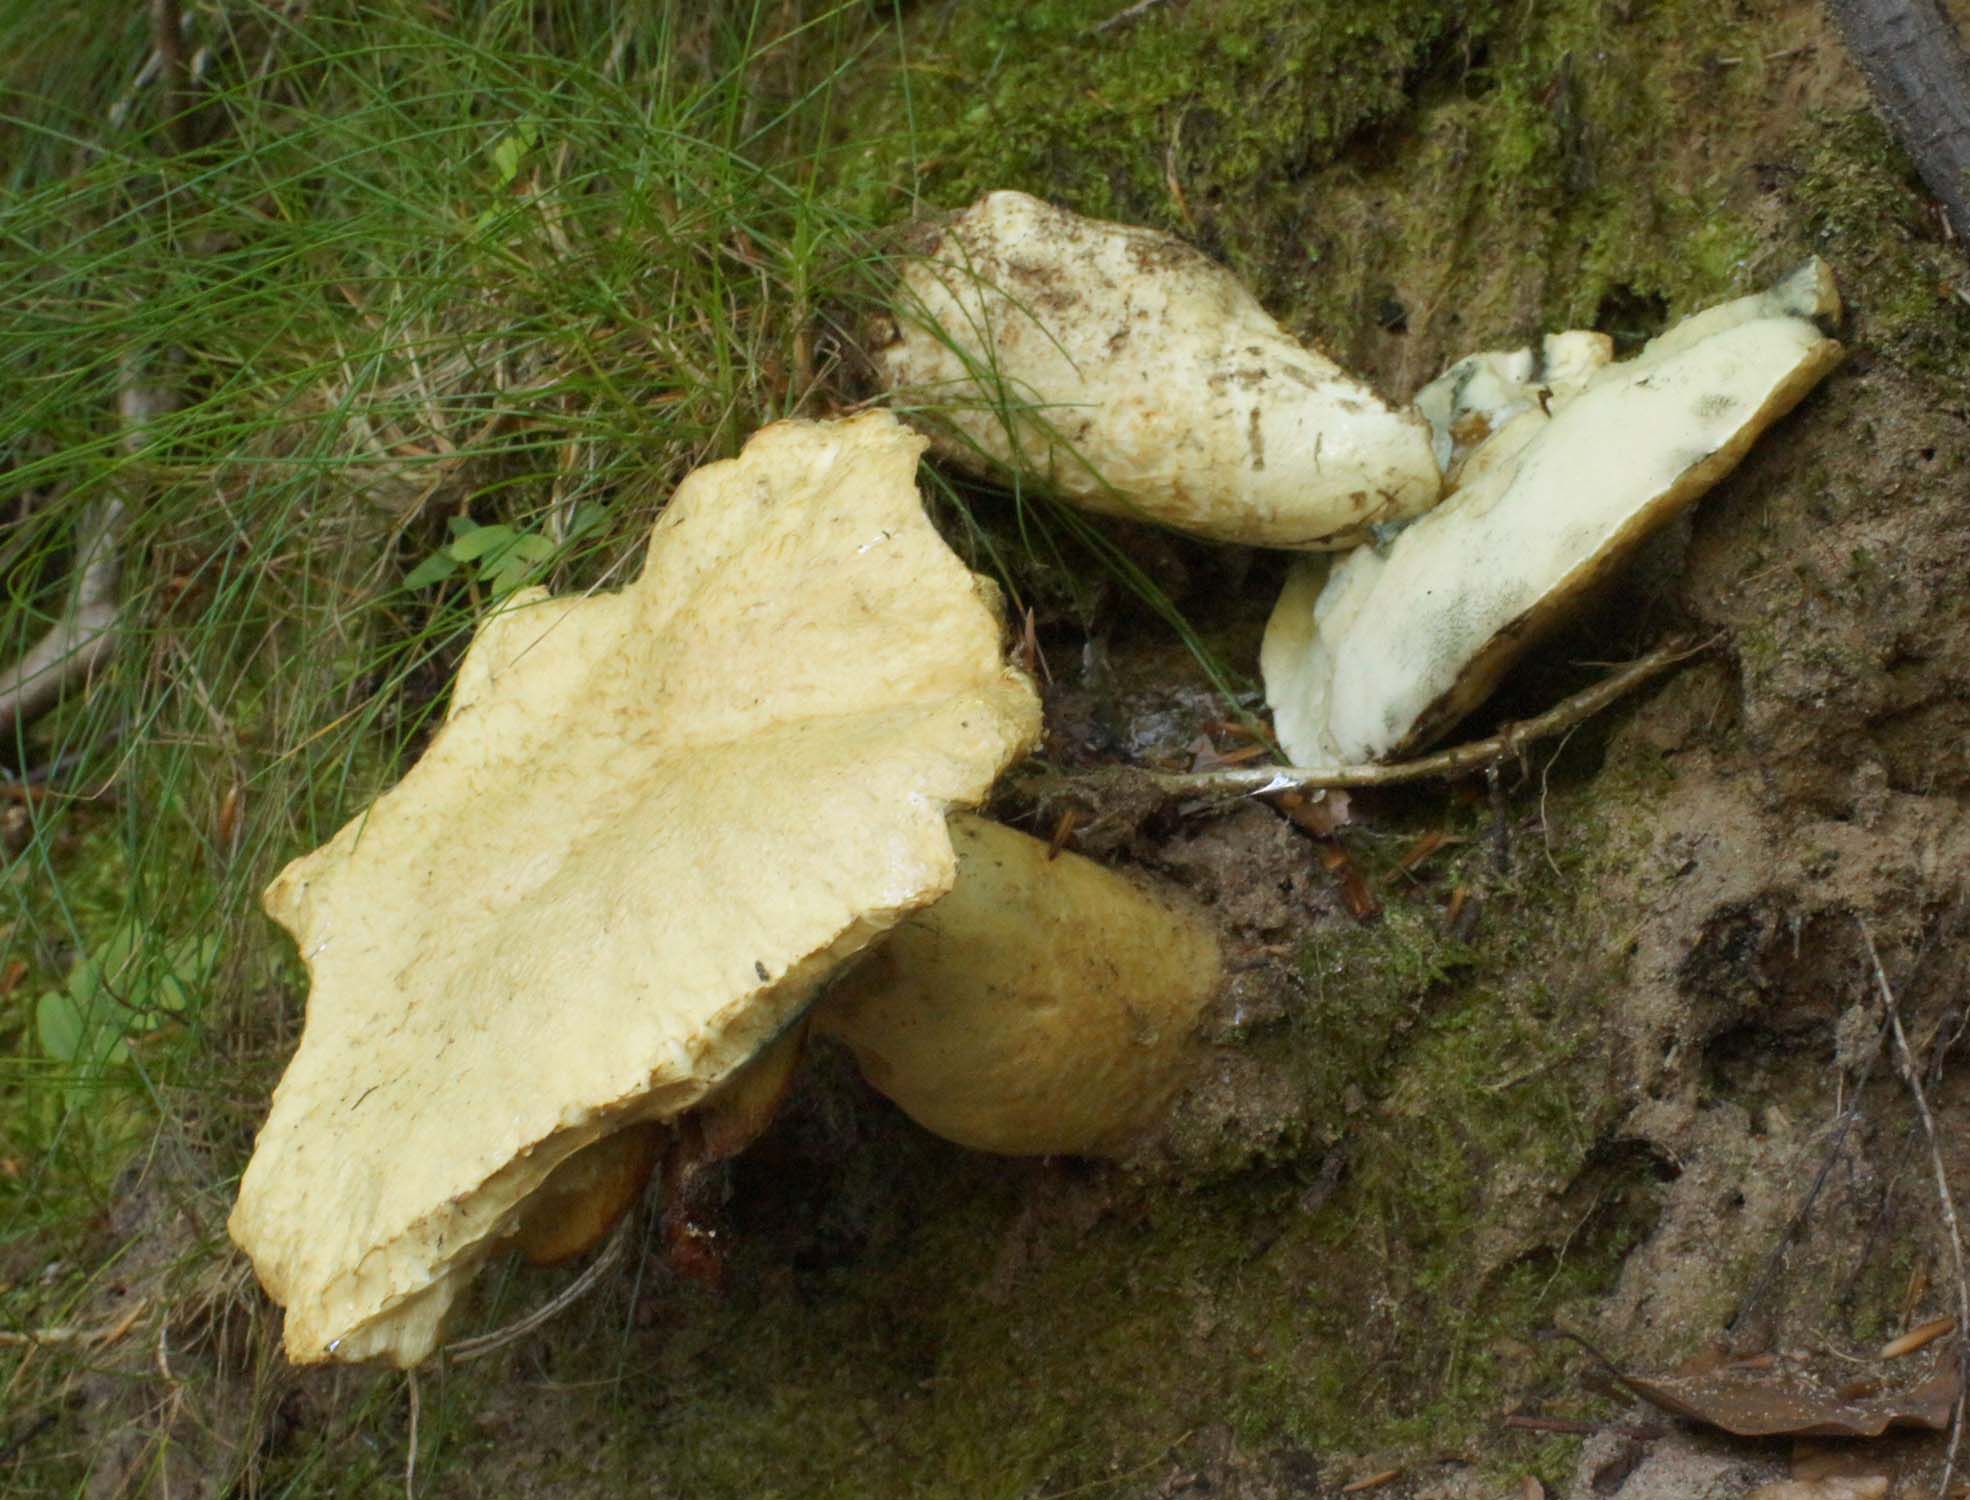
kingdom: Fungi
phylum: Basidiomycota
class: Agaricomycetes
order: Boletales
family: Gyroporaceae
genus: Gyroporus
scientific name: Gyroporus cyanescens
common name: blånende kammerrørhat
